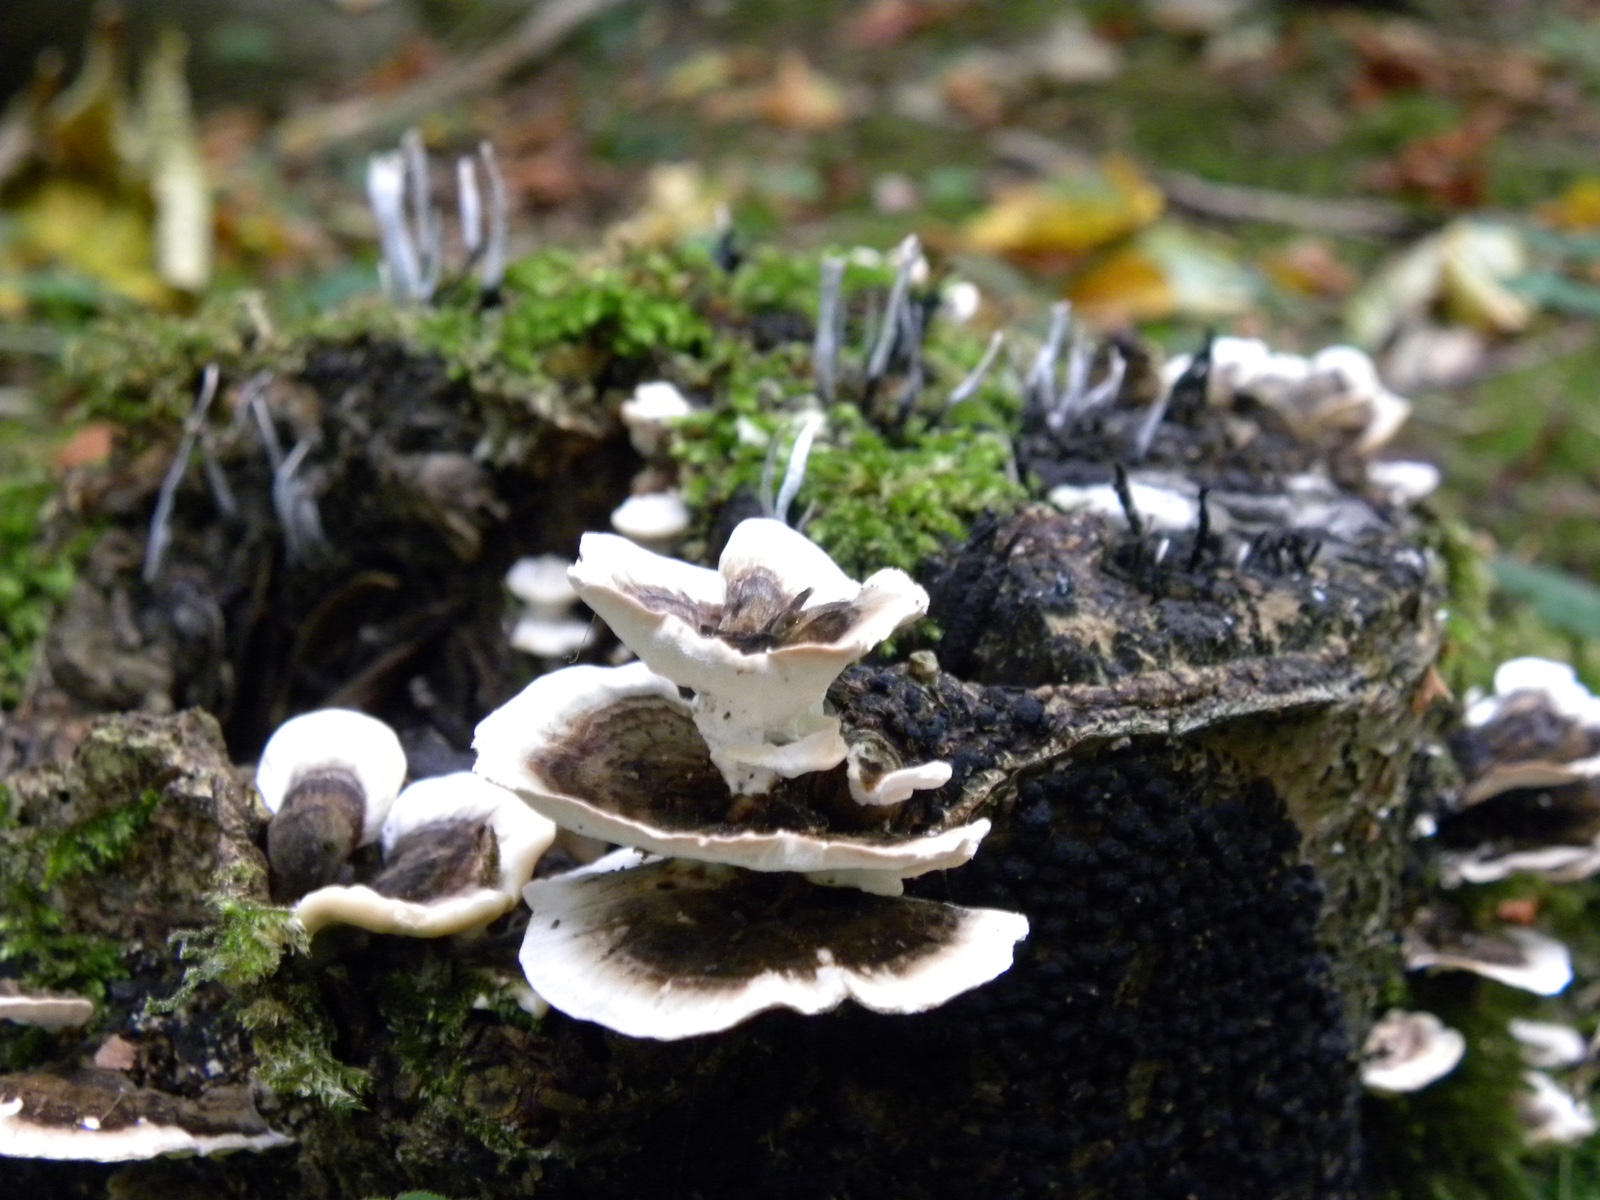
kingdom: Fungi
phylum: Basidiomycota
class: Agaricomycetes
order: Polyporales
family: Polyporaceae
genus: Trametes
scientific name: Trametes versicolor
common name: broget læderporesvamp
